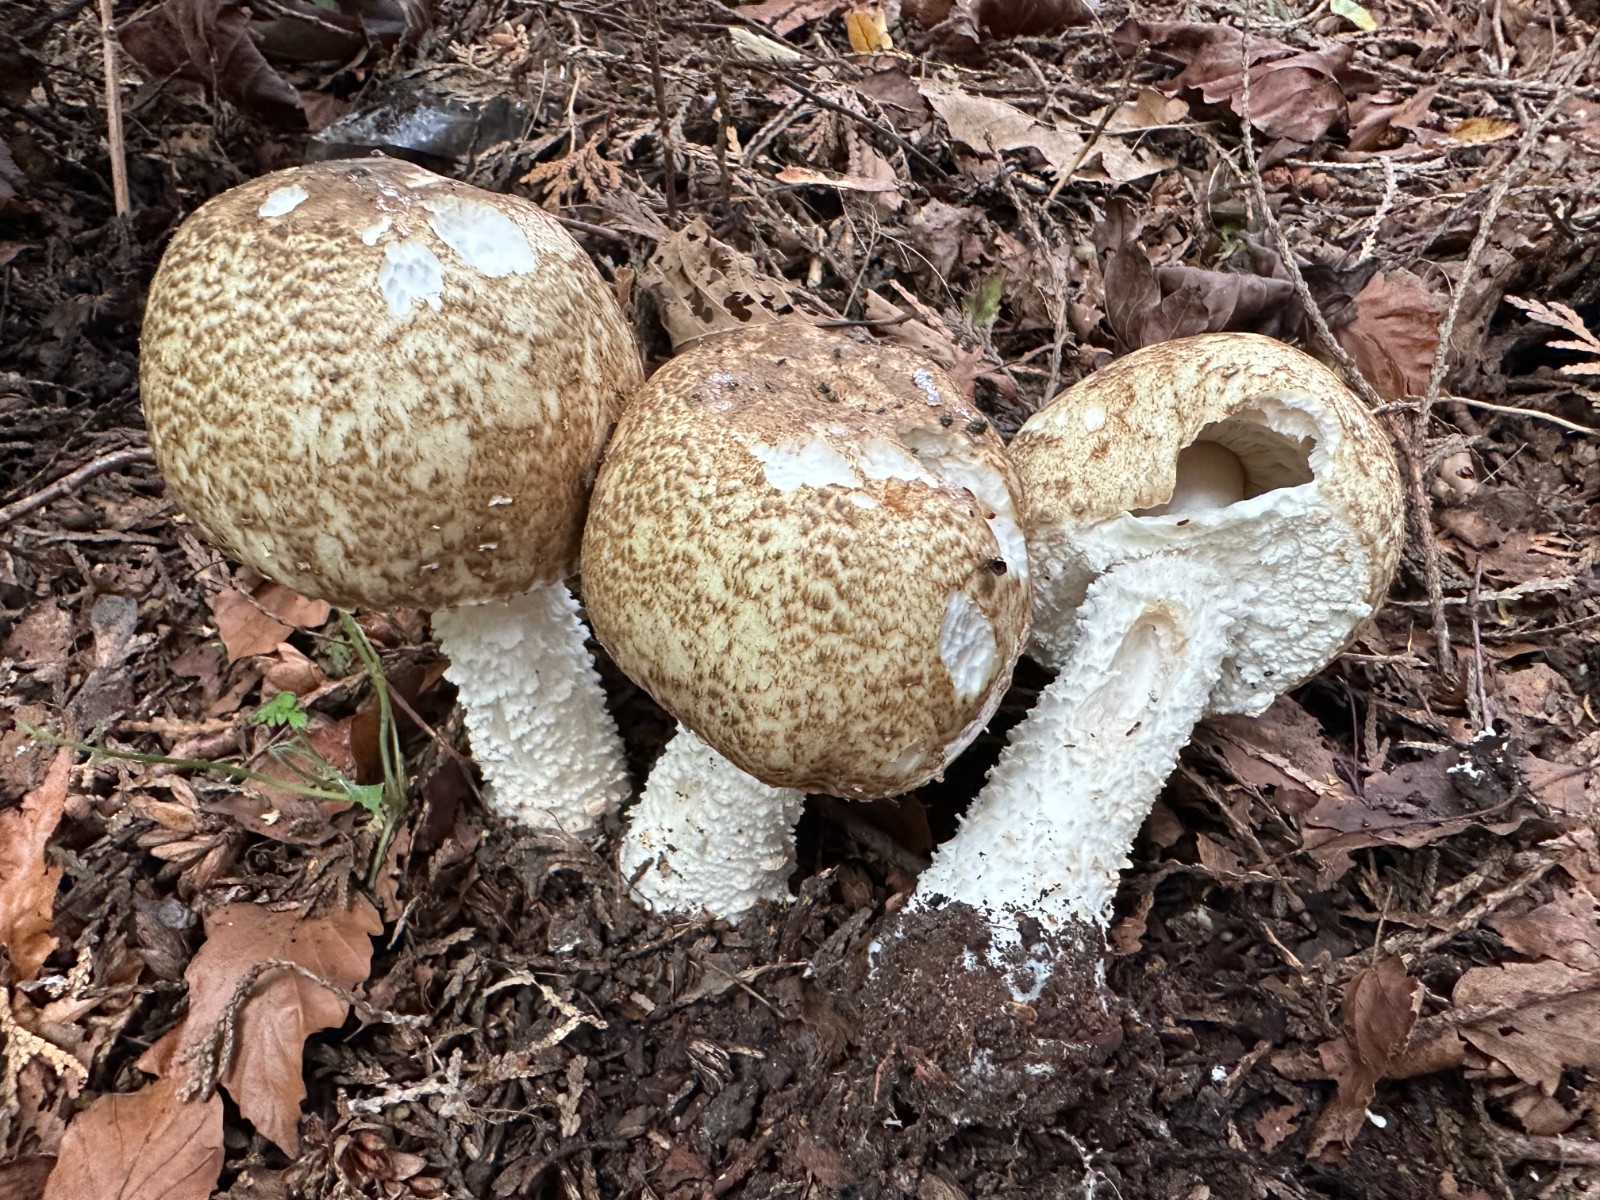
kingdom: Fungi
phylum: Basidiomycota
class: Agaricomycetes
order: Agaricales
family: Agaricaceae
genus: Agaricus
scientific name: Agaricus augustus
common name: prægtig champignon
